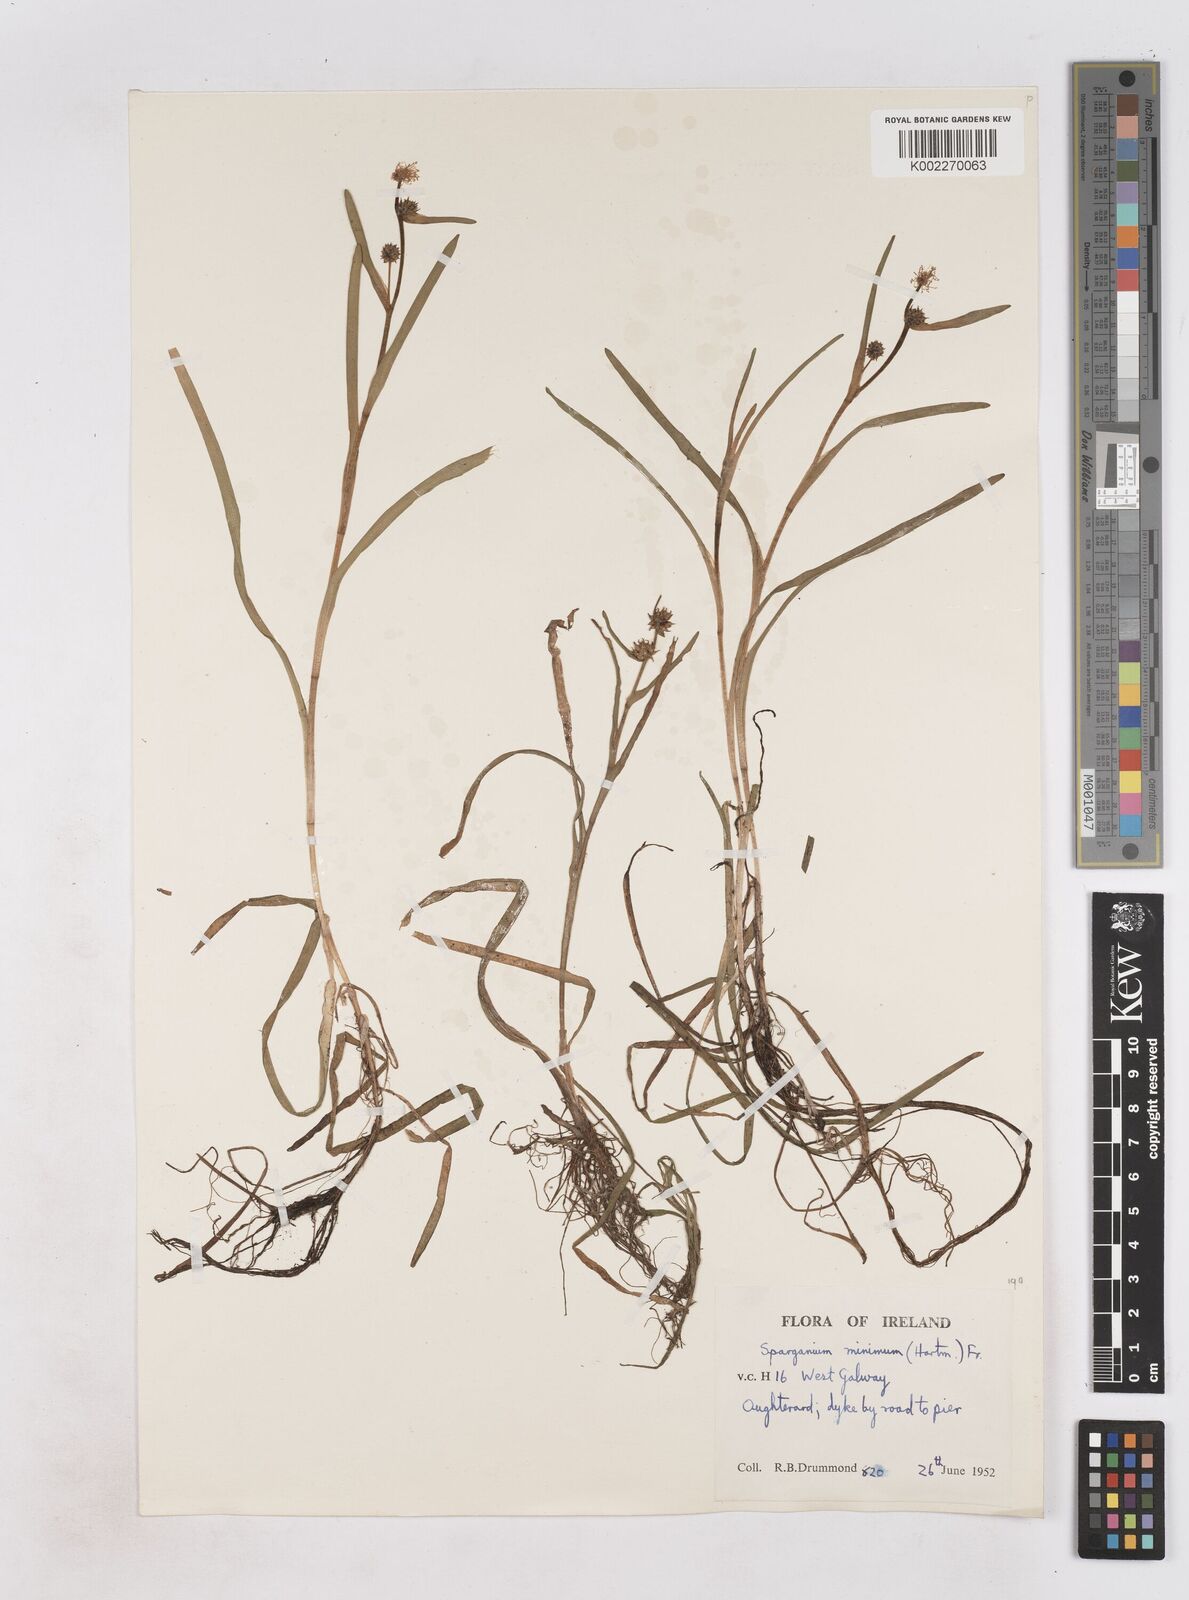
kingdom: Plantae
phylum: Tracheophyta
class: Liliopsida
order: Poales
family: Typhaceae
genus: Sparganium
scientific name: Sparganium natans
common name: Least bur-reed
